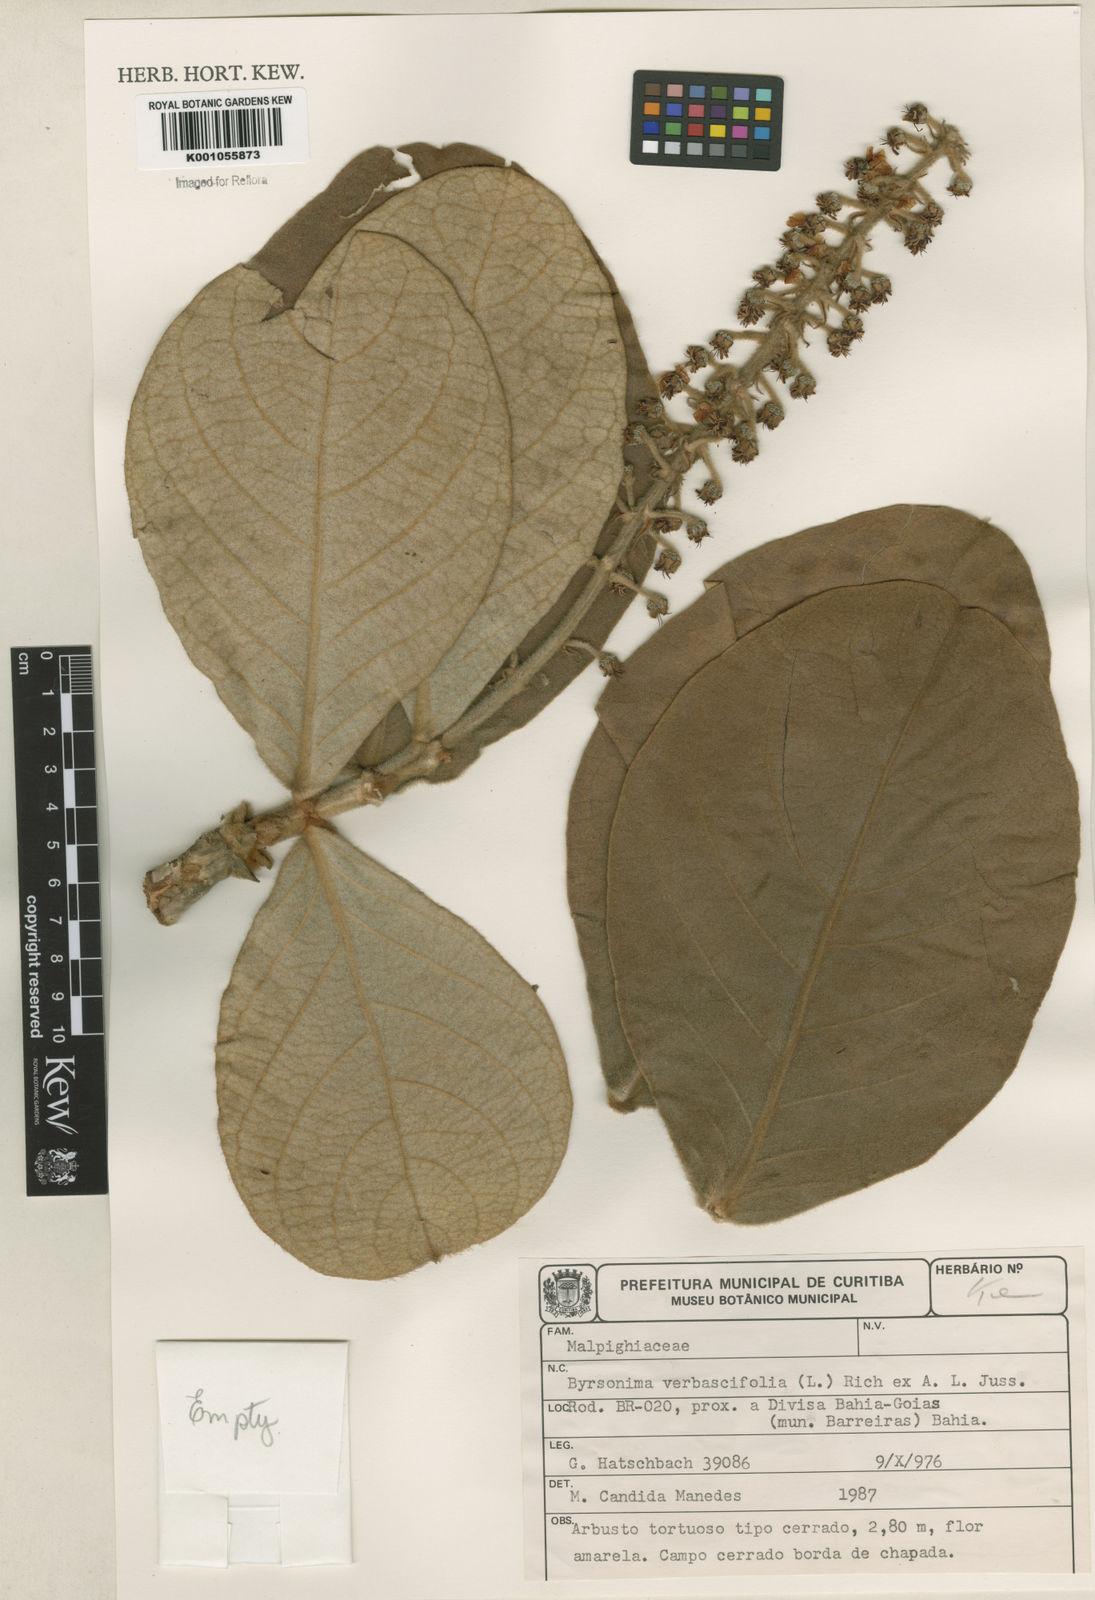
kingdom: Plantae
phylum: Tracheophyta
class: Magnoliopsida
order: Malpighiales
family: Malpighiaceae
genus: Byrsonima
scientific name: Byrsonima verbascifolia
